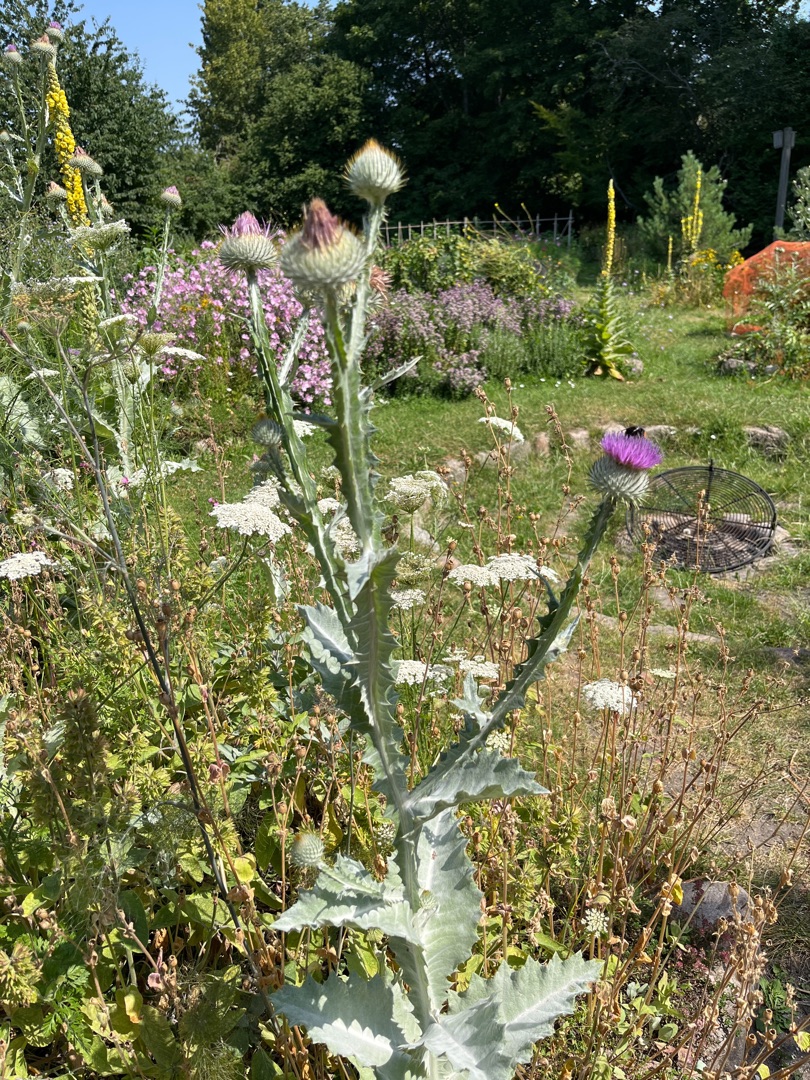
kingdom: Plantae
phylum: Tracheophyta
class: Magnoliopsida
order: Asterales
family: Asteraceae
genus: Onopordum
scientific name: Onopordum acanthium
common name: Æselfoder
